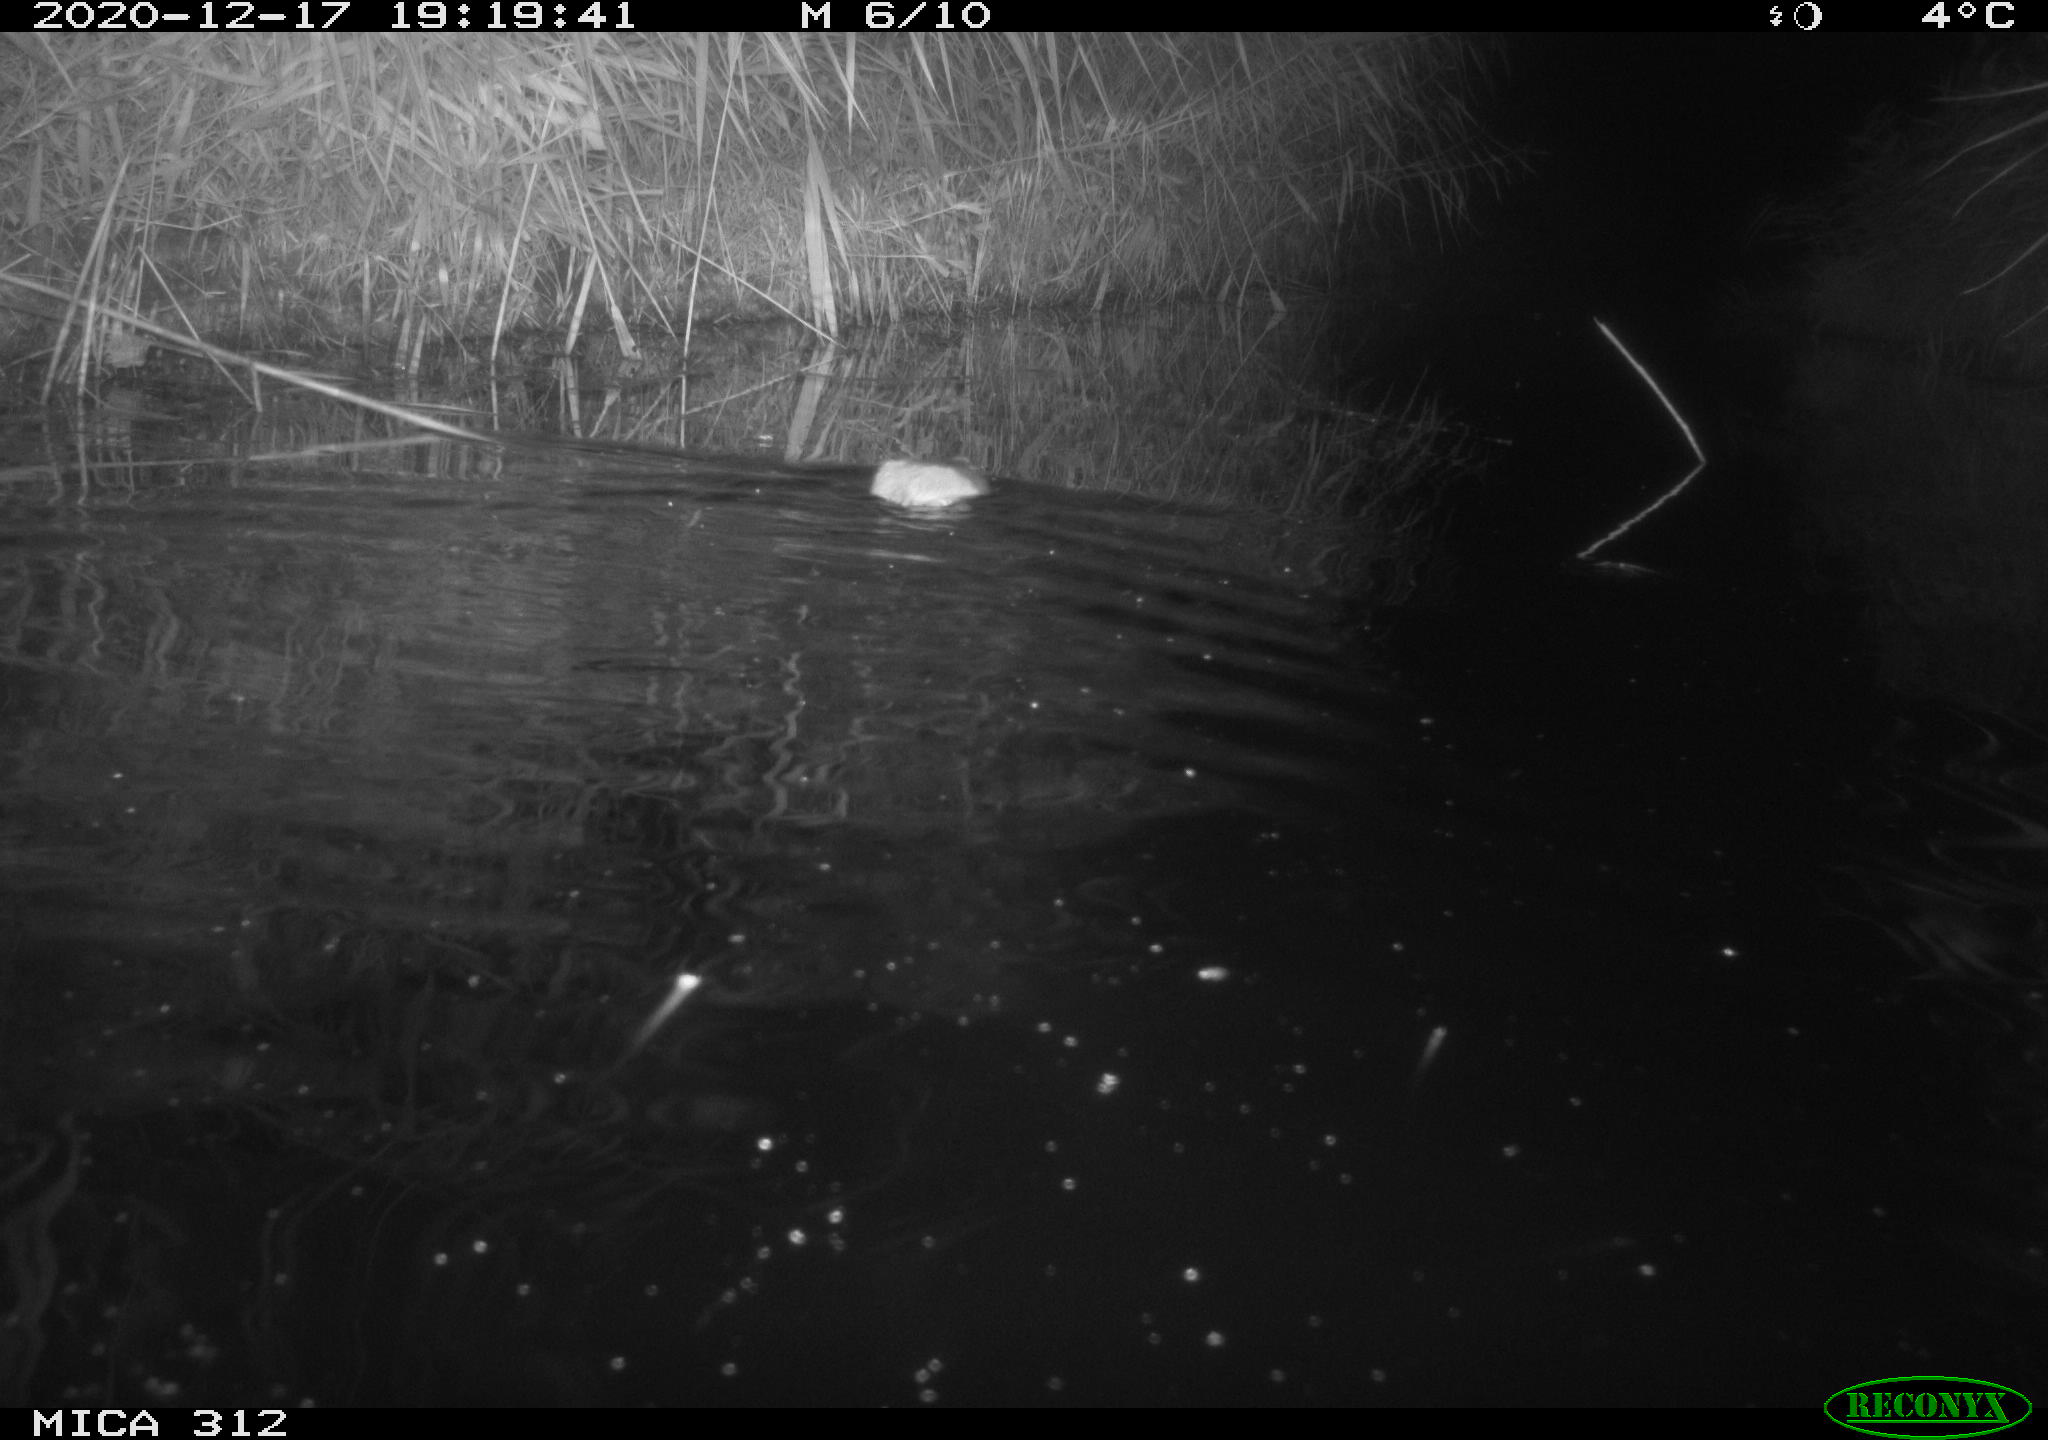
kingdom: Animalia
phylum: Chordata
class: Mammalia
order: Rodentia
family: Muridae
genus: Rattus
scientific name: Rattus norvegicus
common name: Brown rat
